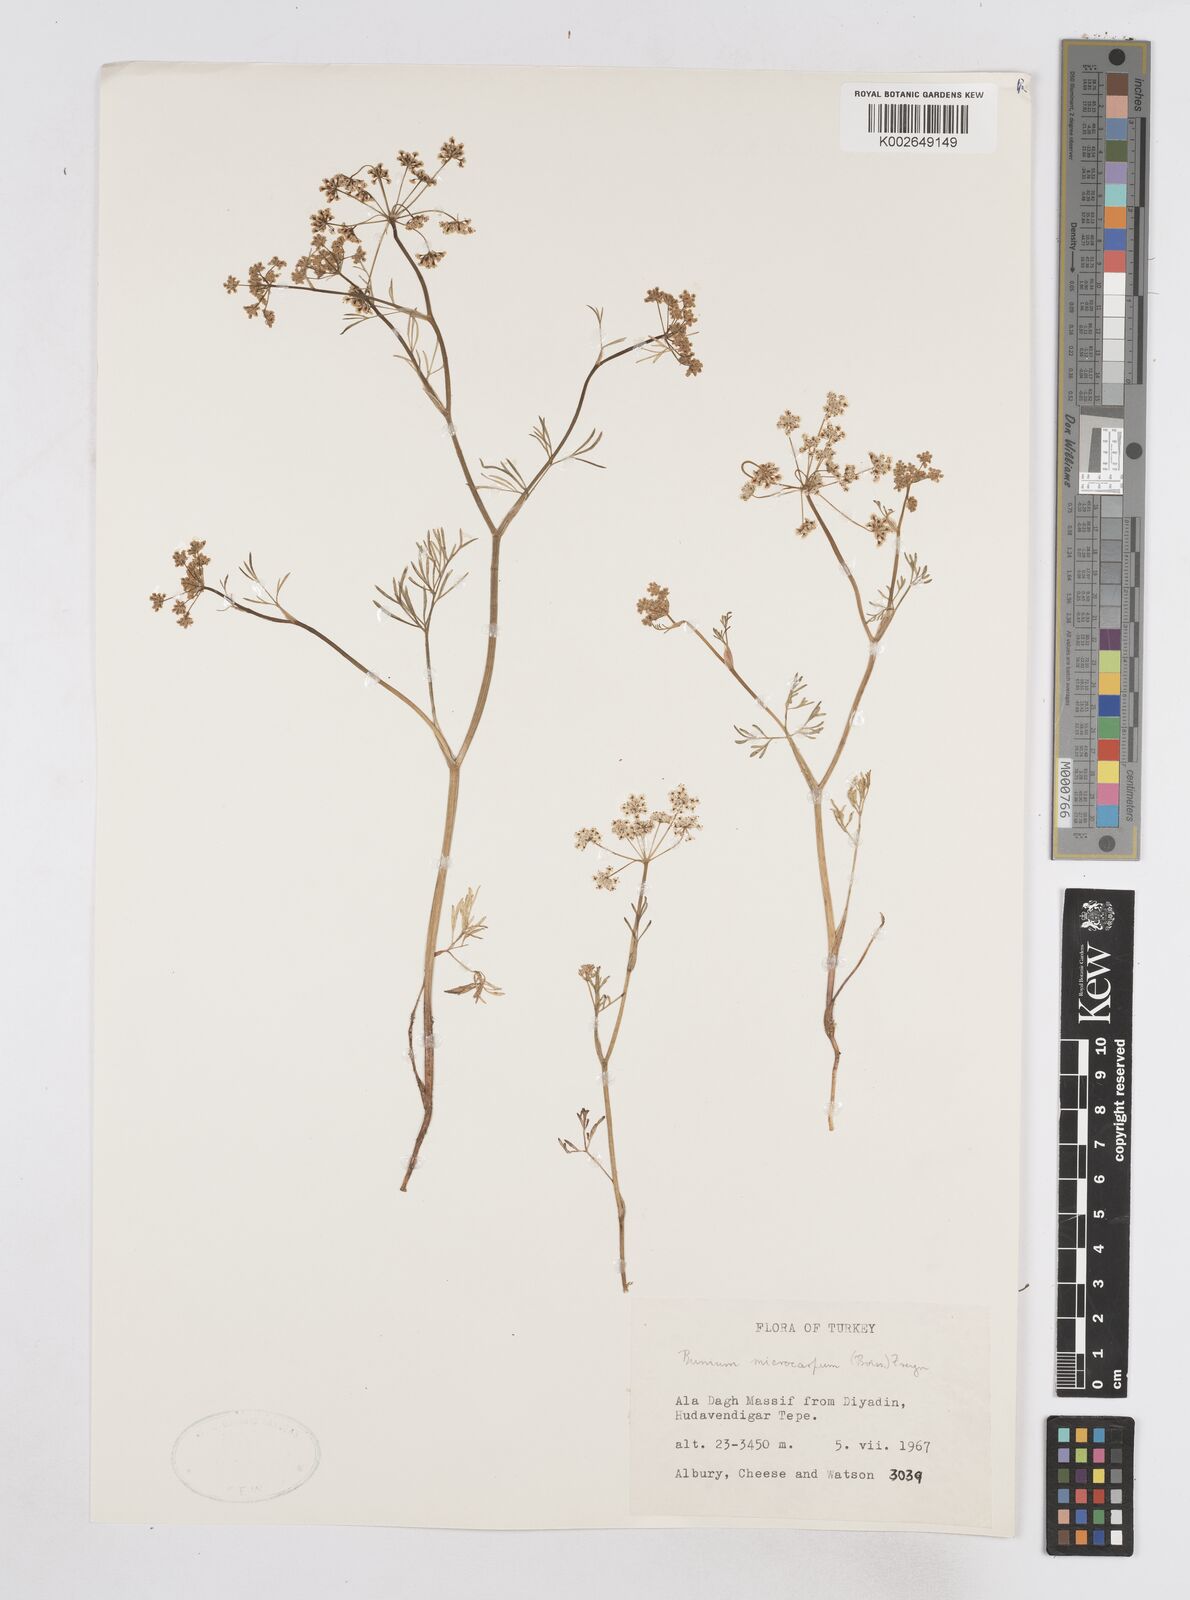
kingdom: Plantae
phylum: Tracheophyta
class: Magnoliopsida
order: Apiales
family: Apiaceae
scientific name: Apiaceae
